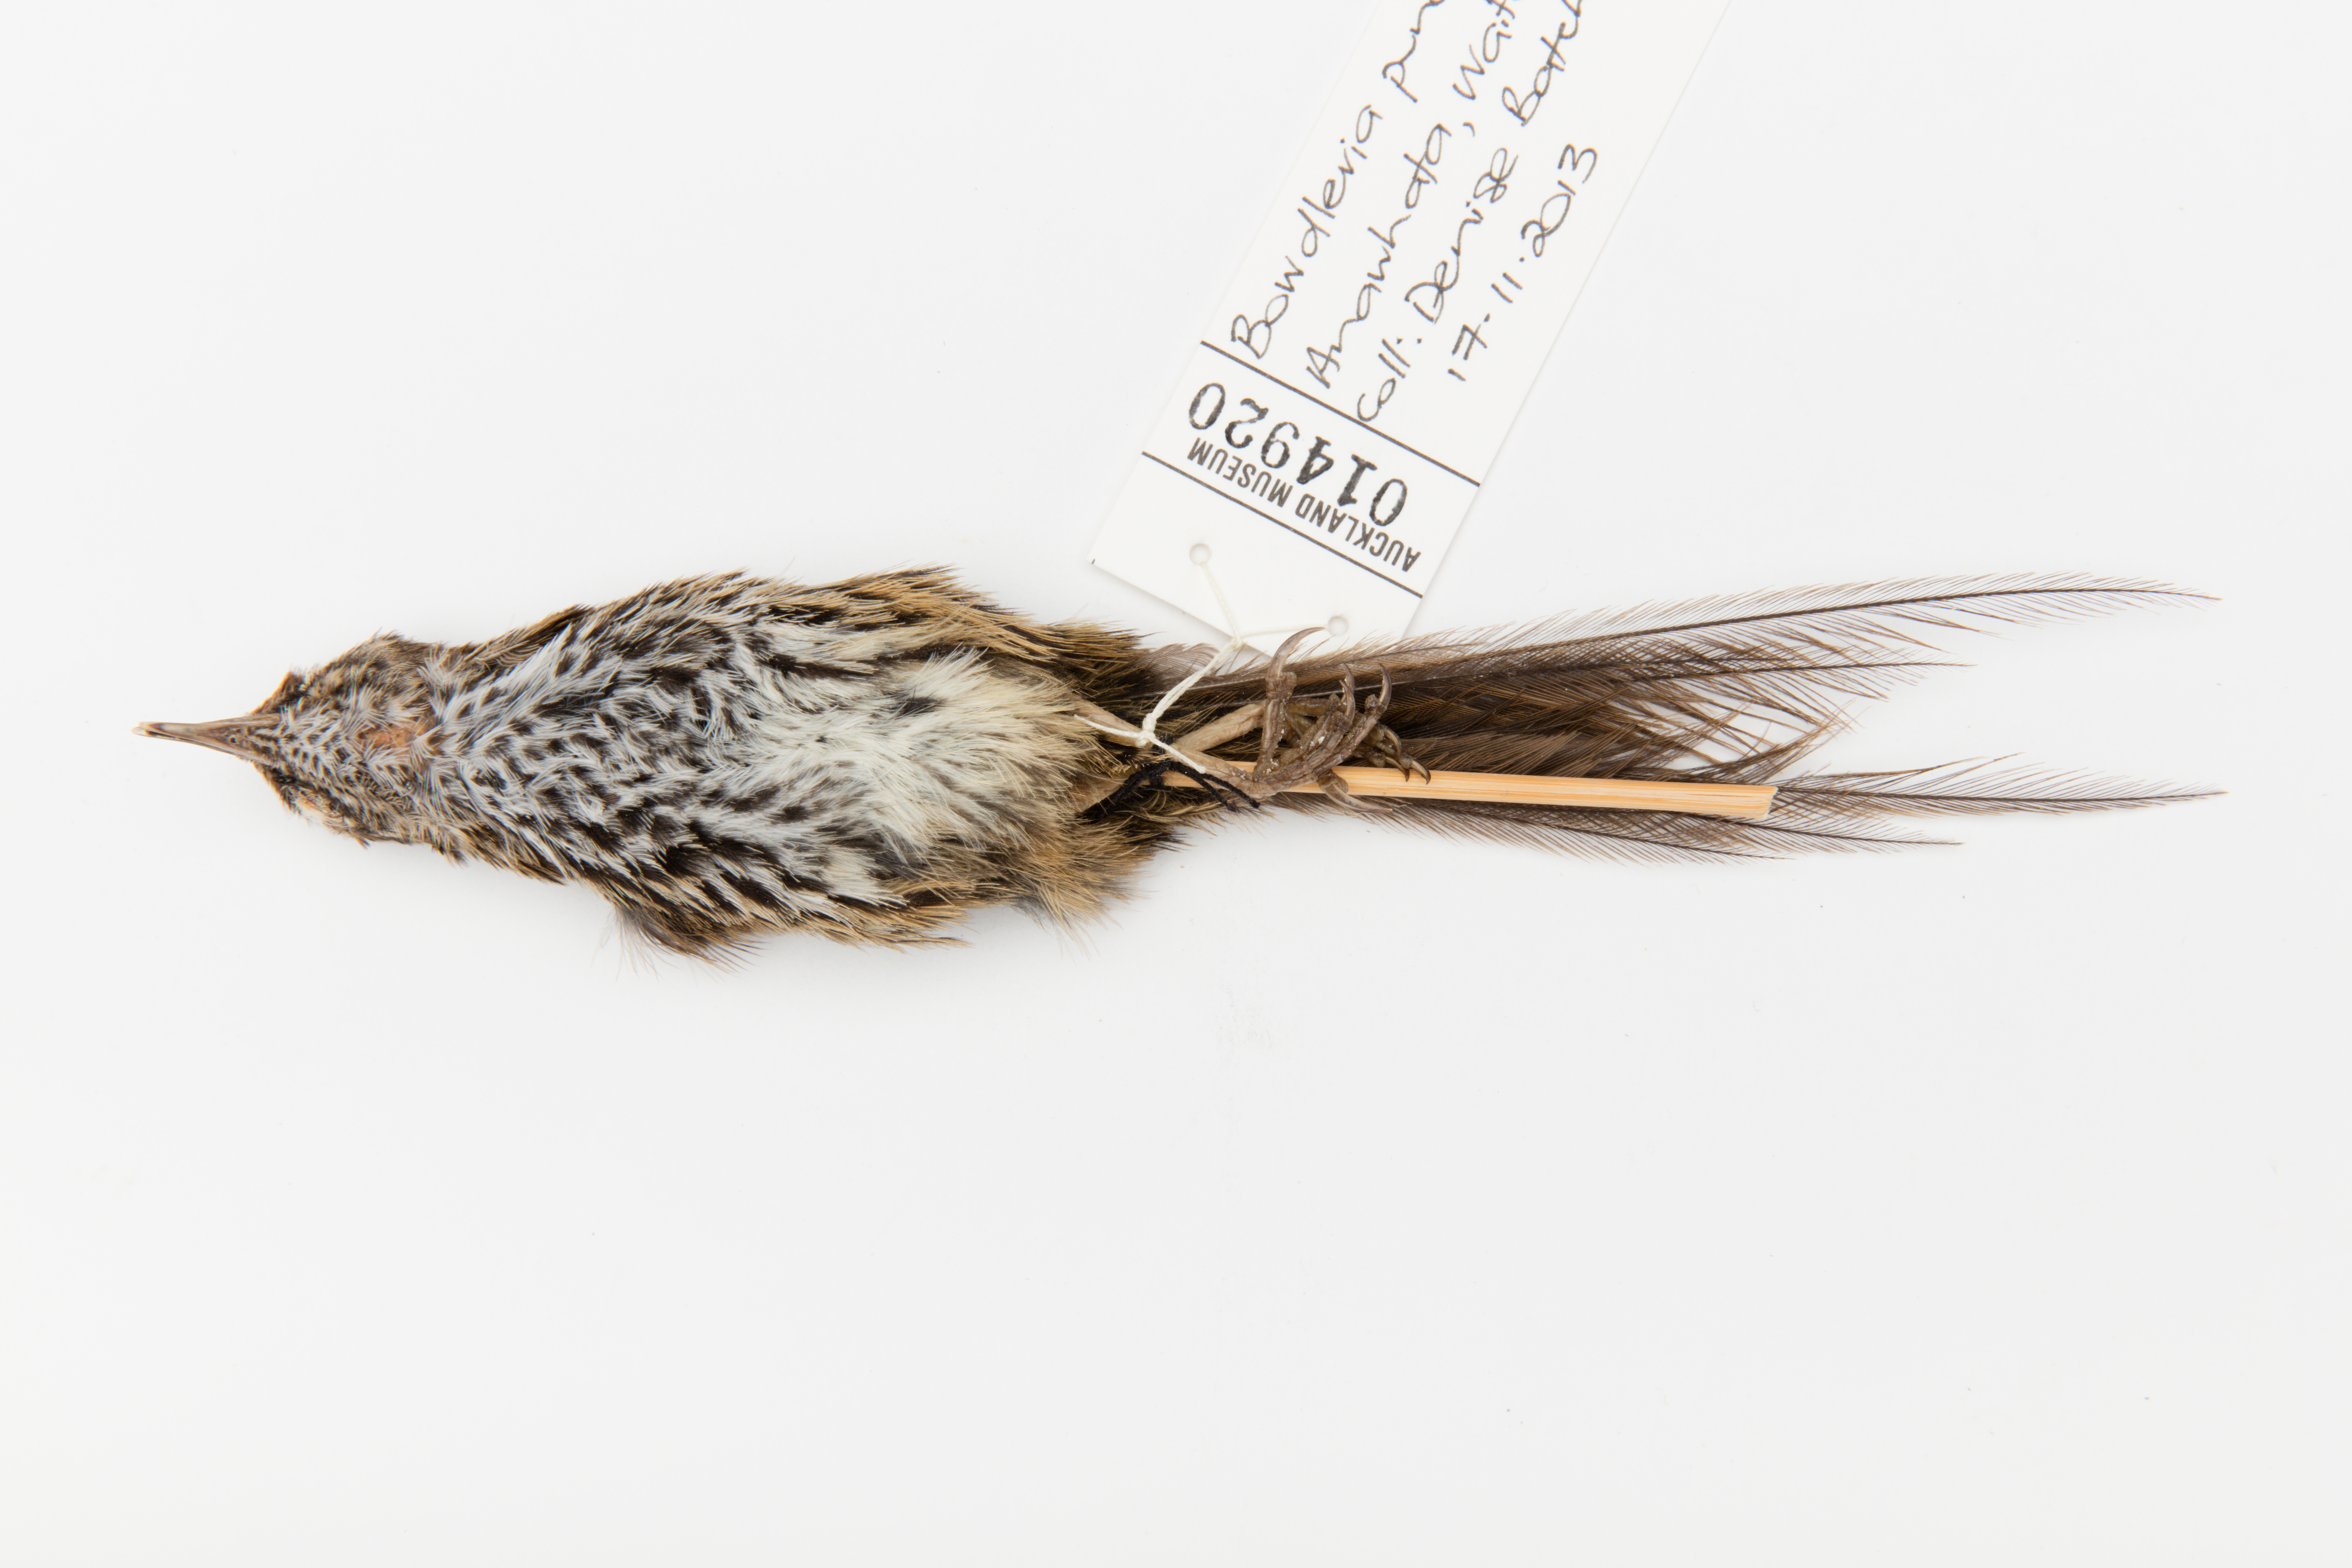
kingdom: Animalia
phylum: Chordata
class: Aves
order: Passeriformes
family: Locustellidae
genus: Megalurus
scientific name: Megalurus punctatus
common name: New zealand fernbird
